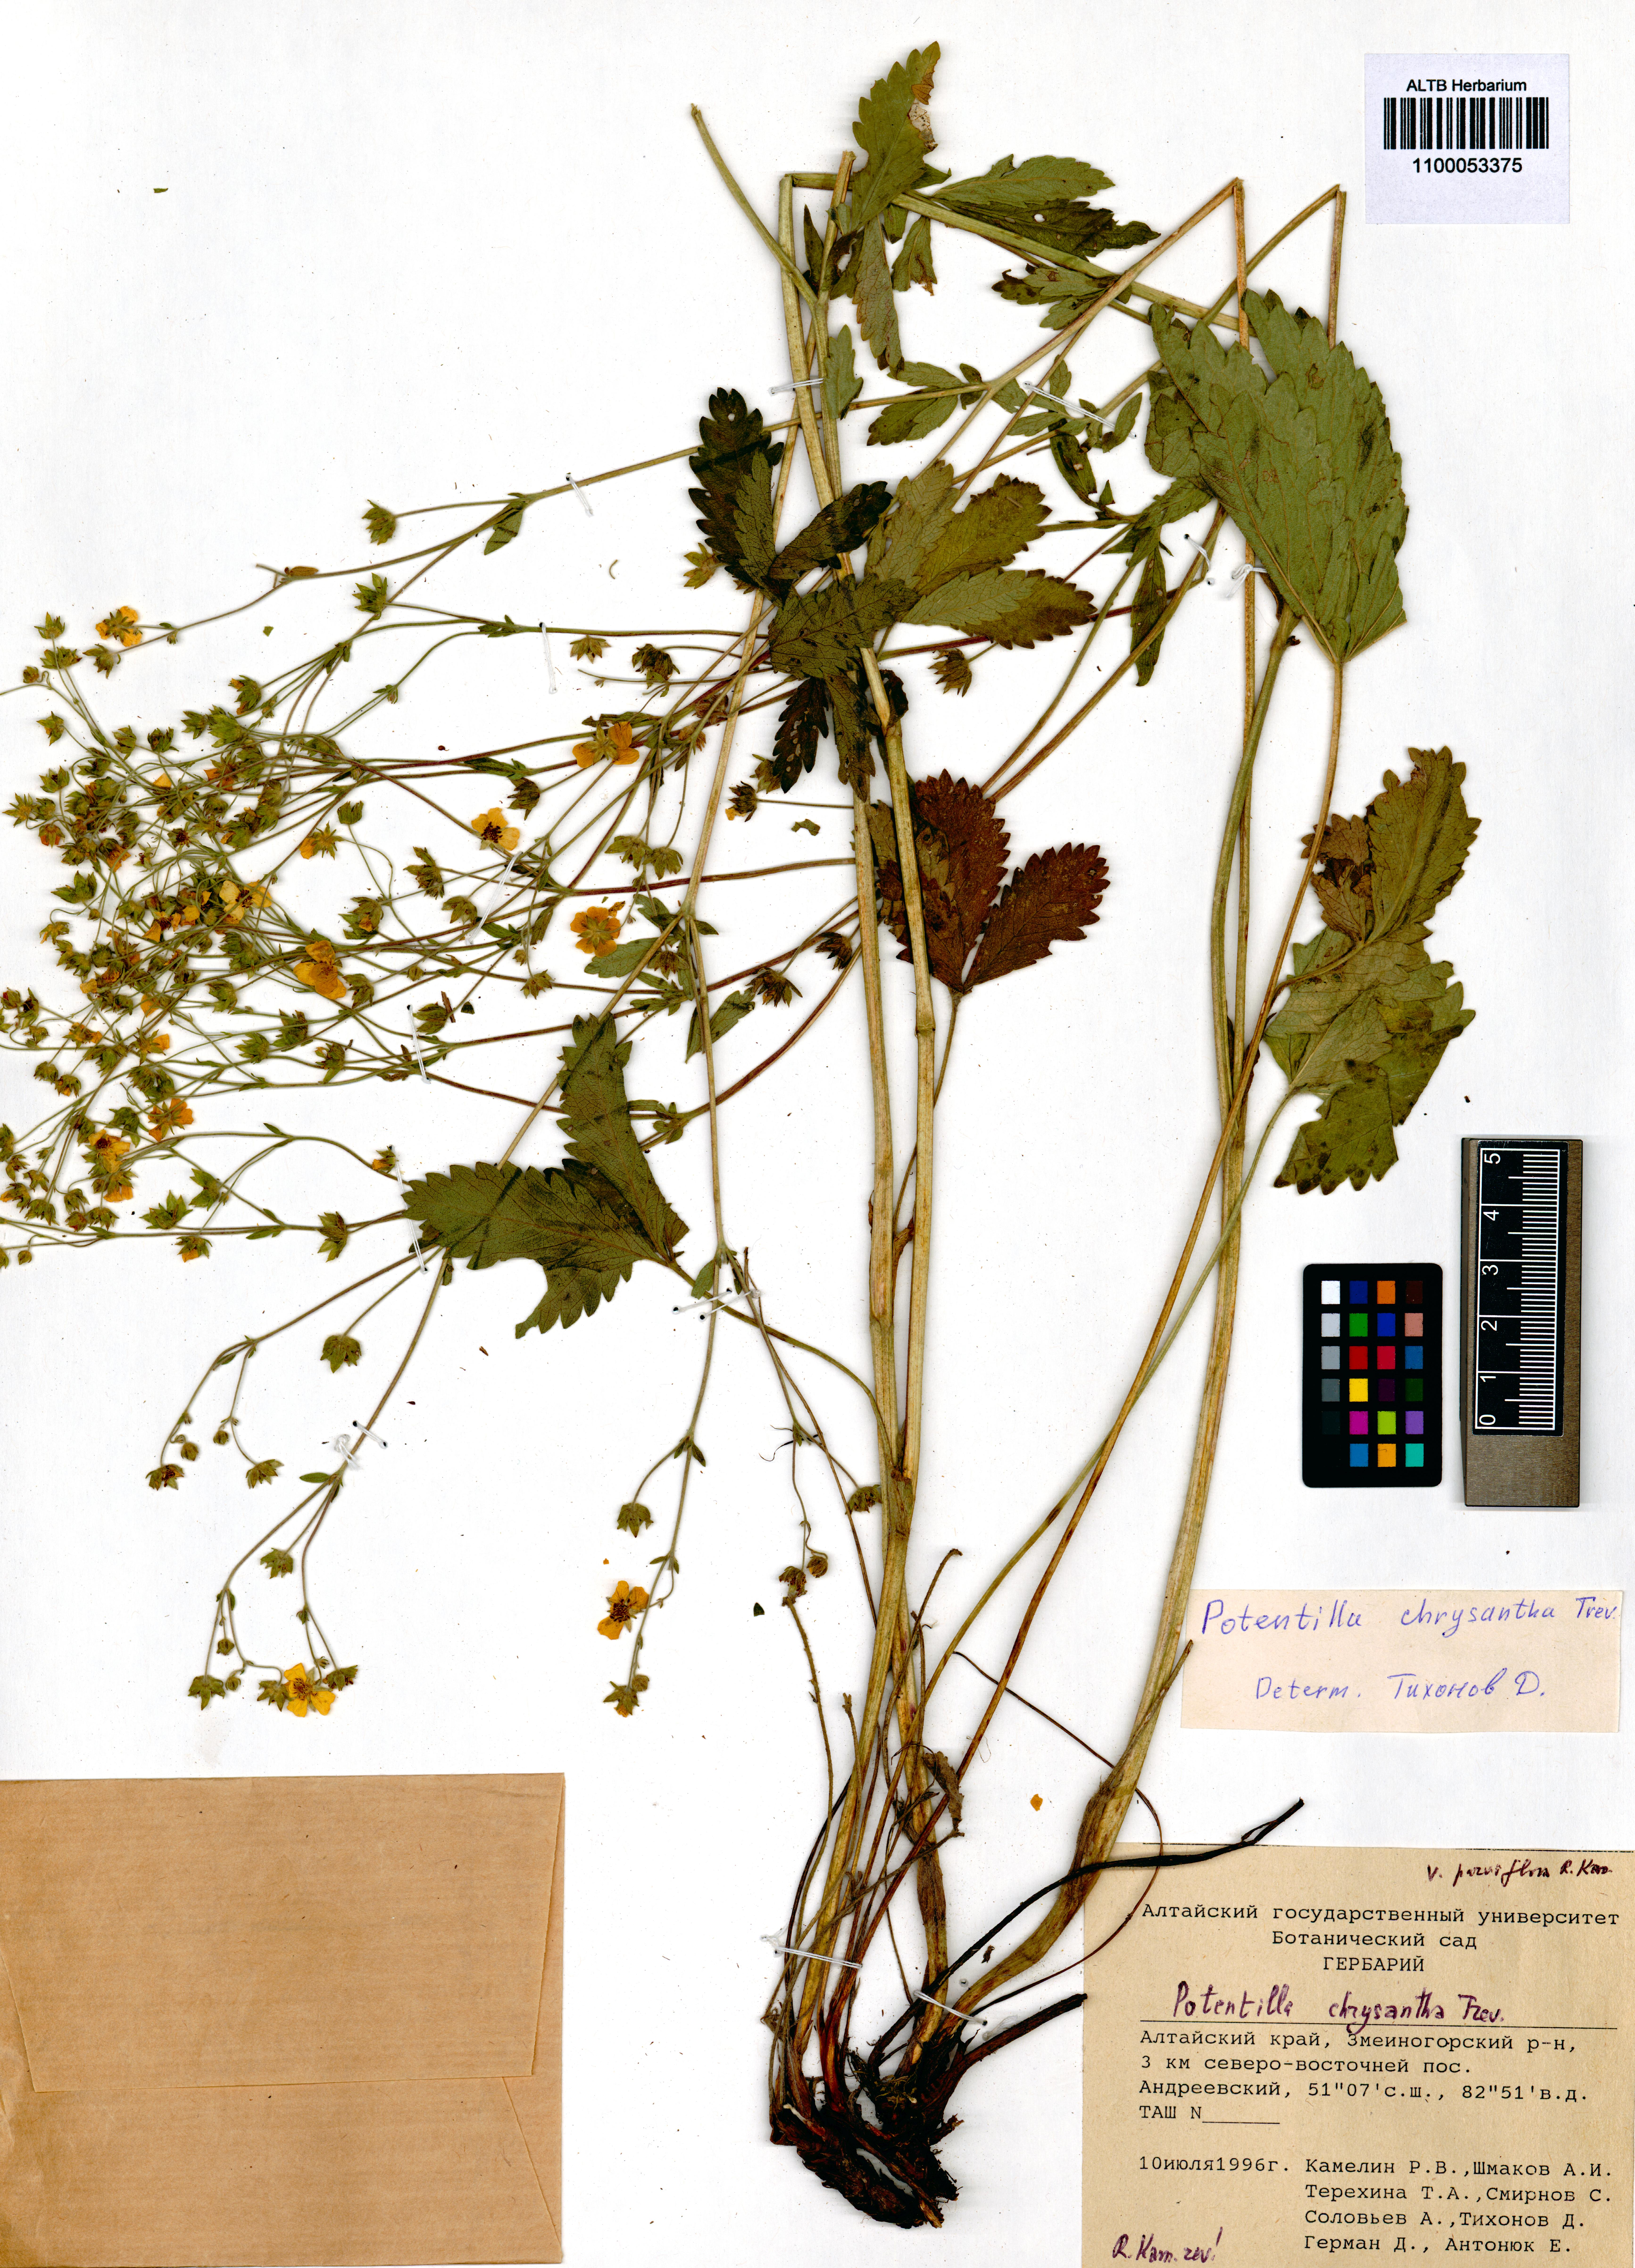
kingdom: Plantae
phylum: Tracheophyta
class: Magnoliopsida
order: Rosales
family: Rosaceae
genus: Potentilla
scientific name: Potentilla chrysantha
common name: Thuringian cinquefoil
